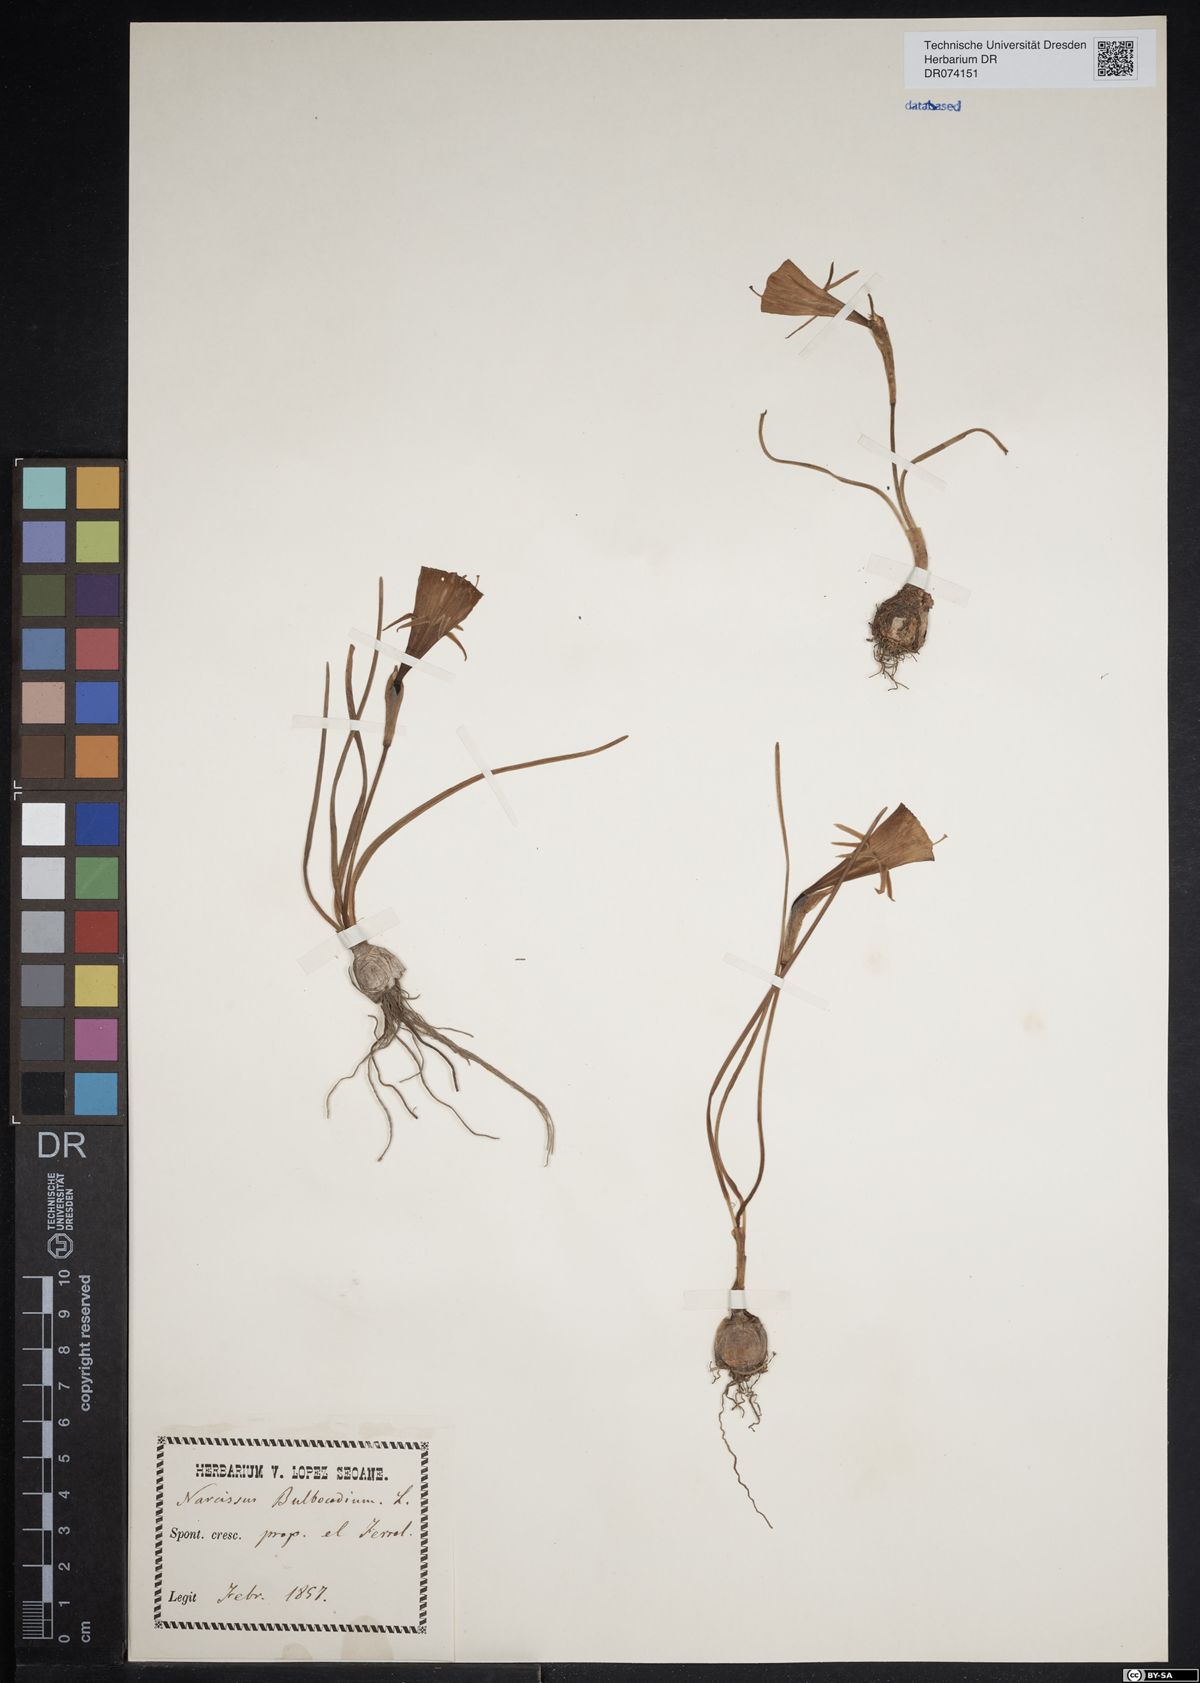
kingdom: Plantae
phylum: Tracheophyta
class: Liliopsida
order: Asparagales
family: Amaryllidaceae
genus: Narcissus
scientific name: Narcissus bulbocodium
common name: Hoop-petticoat daffodil
